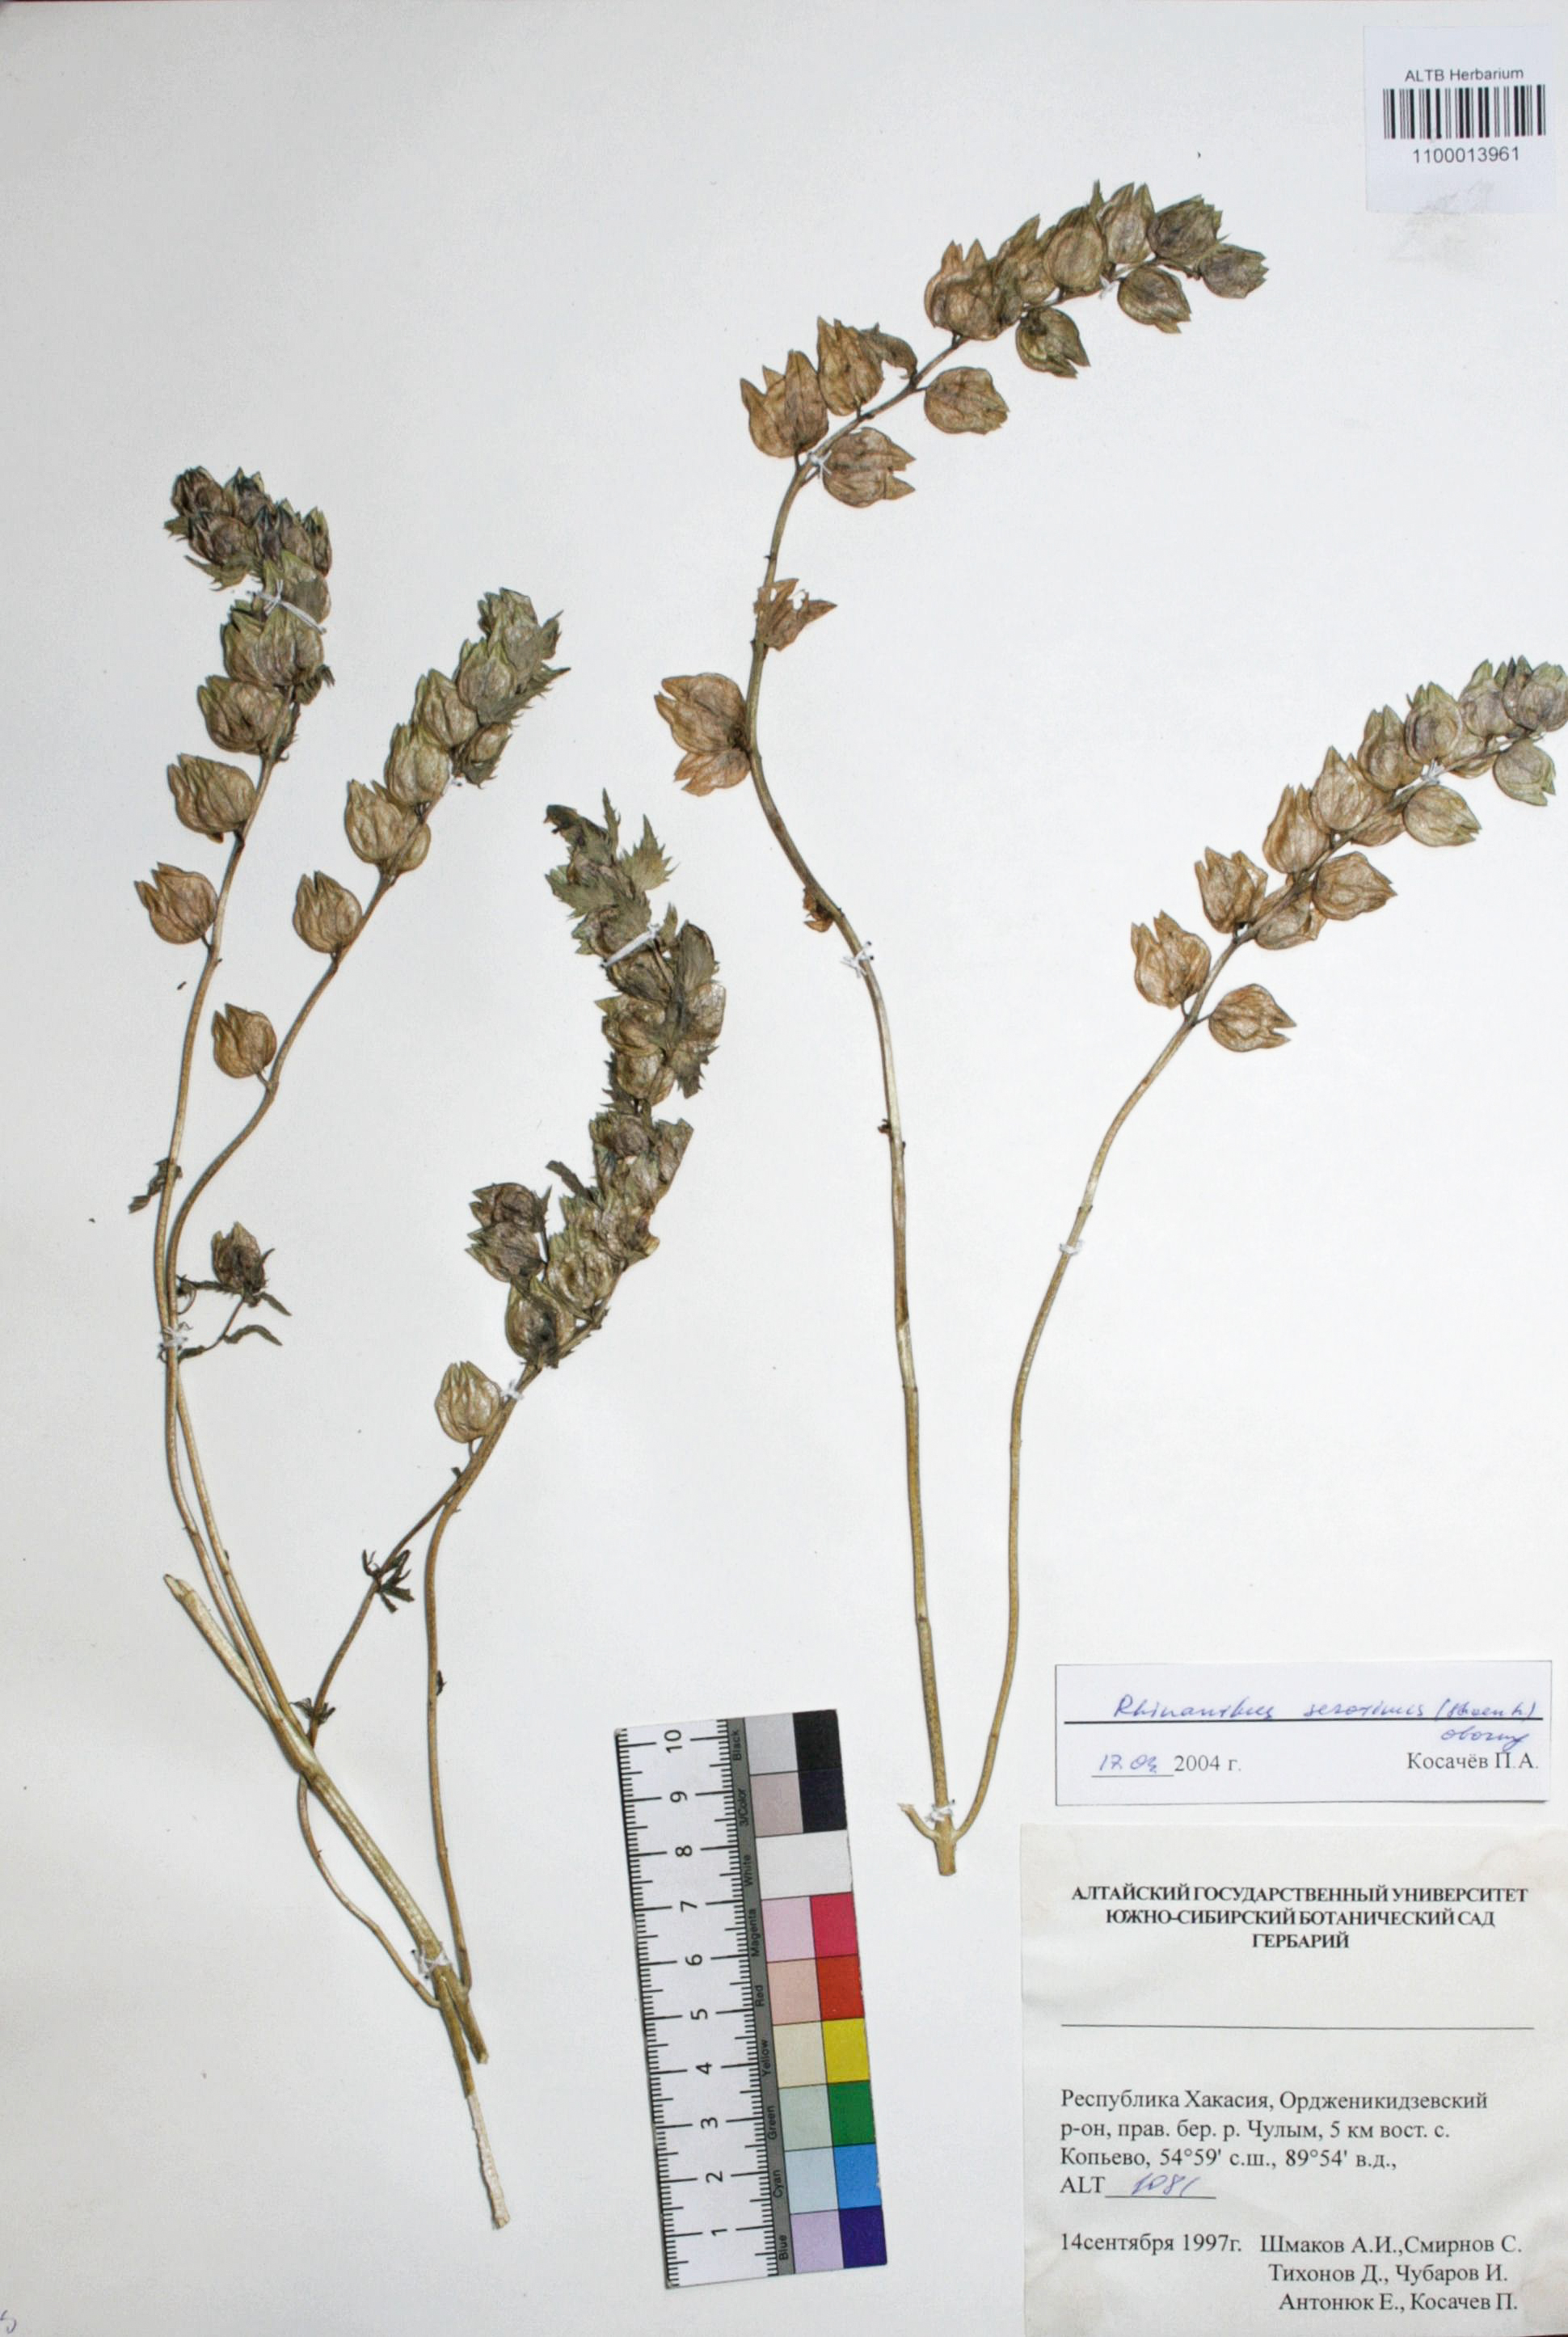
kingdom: Plantae
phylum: Tracheophyta
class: Magnoliopsida
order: Lamiales
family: Orobanchaceae
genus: Rhinanthus
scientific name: Rhinanthus serotinus
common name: Late-flowering yellow rattle
